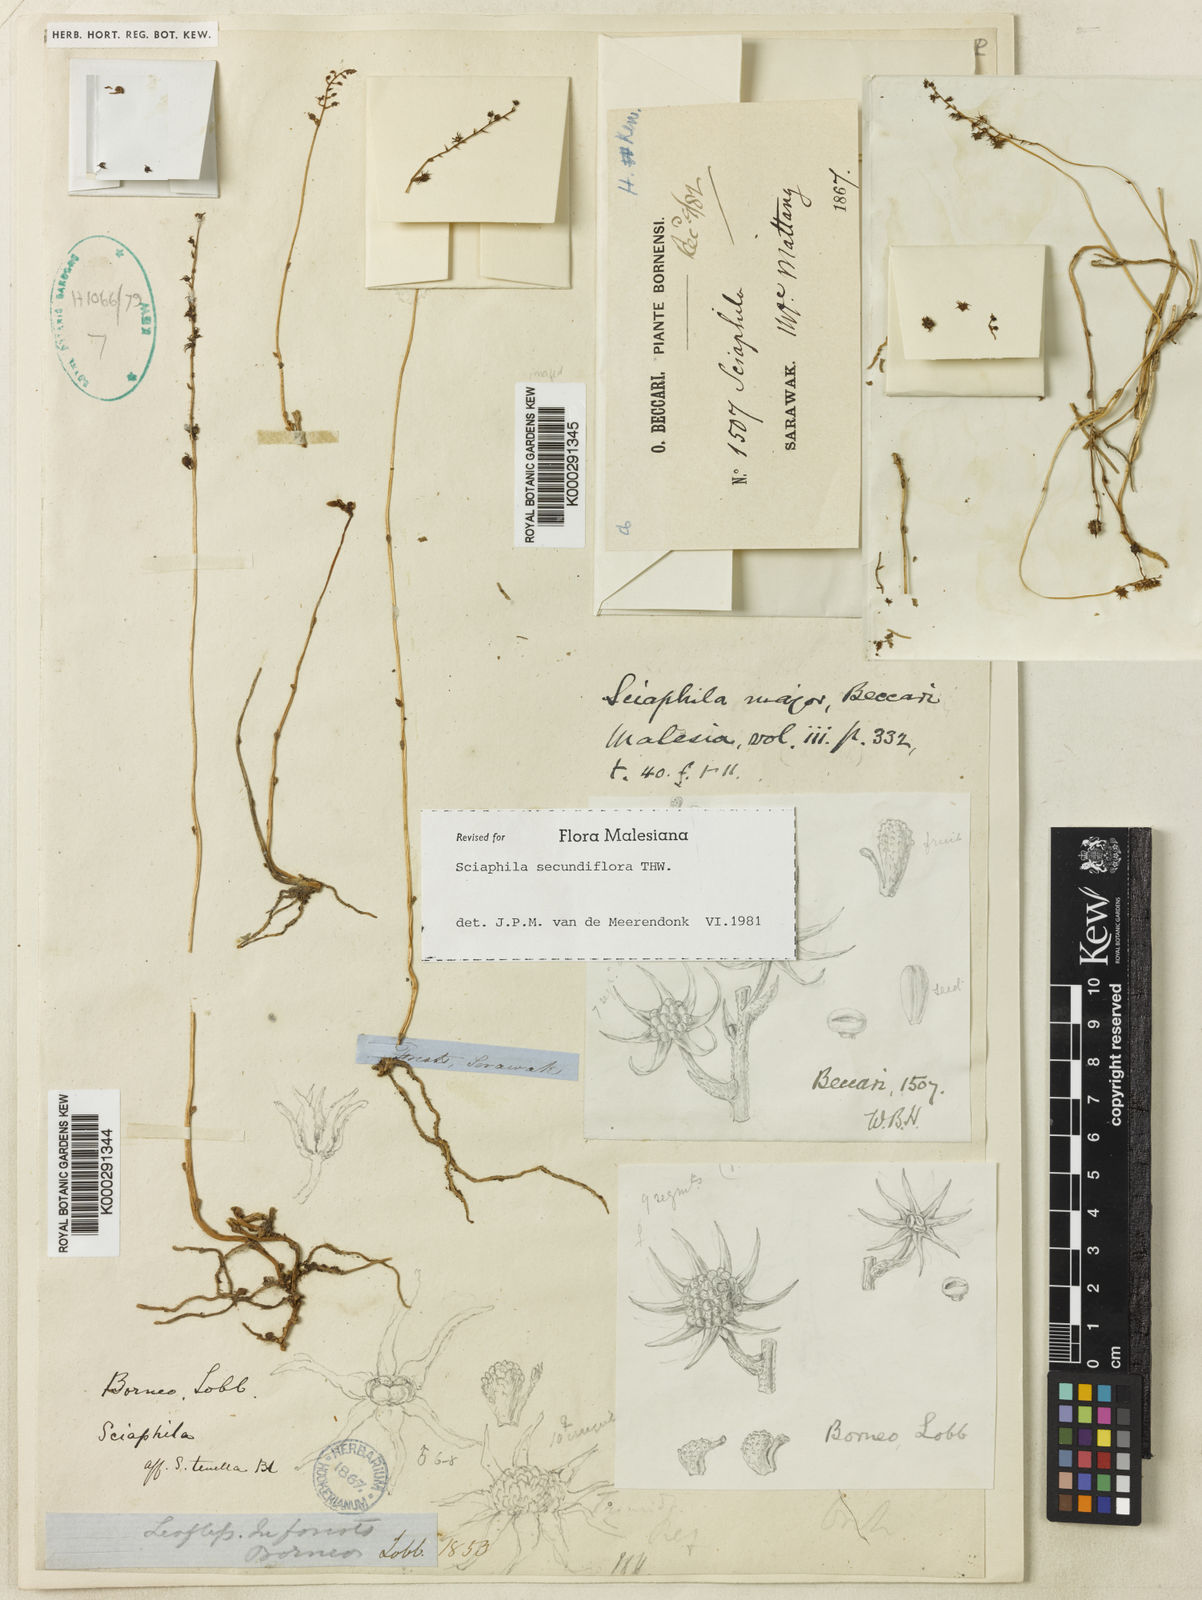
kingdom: Plantae
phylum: Tracheophyta
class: Liliopsida
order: Pandanales
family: Triuridaceae
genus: Sciaphila
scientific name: Sciaphila secundiflora
